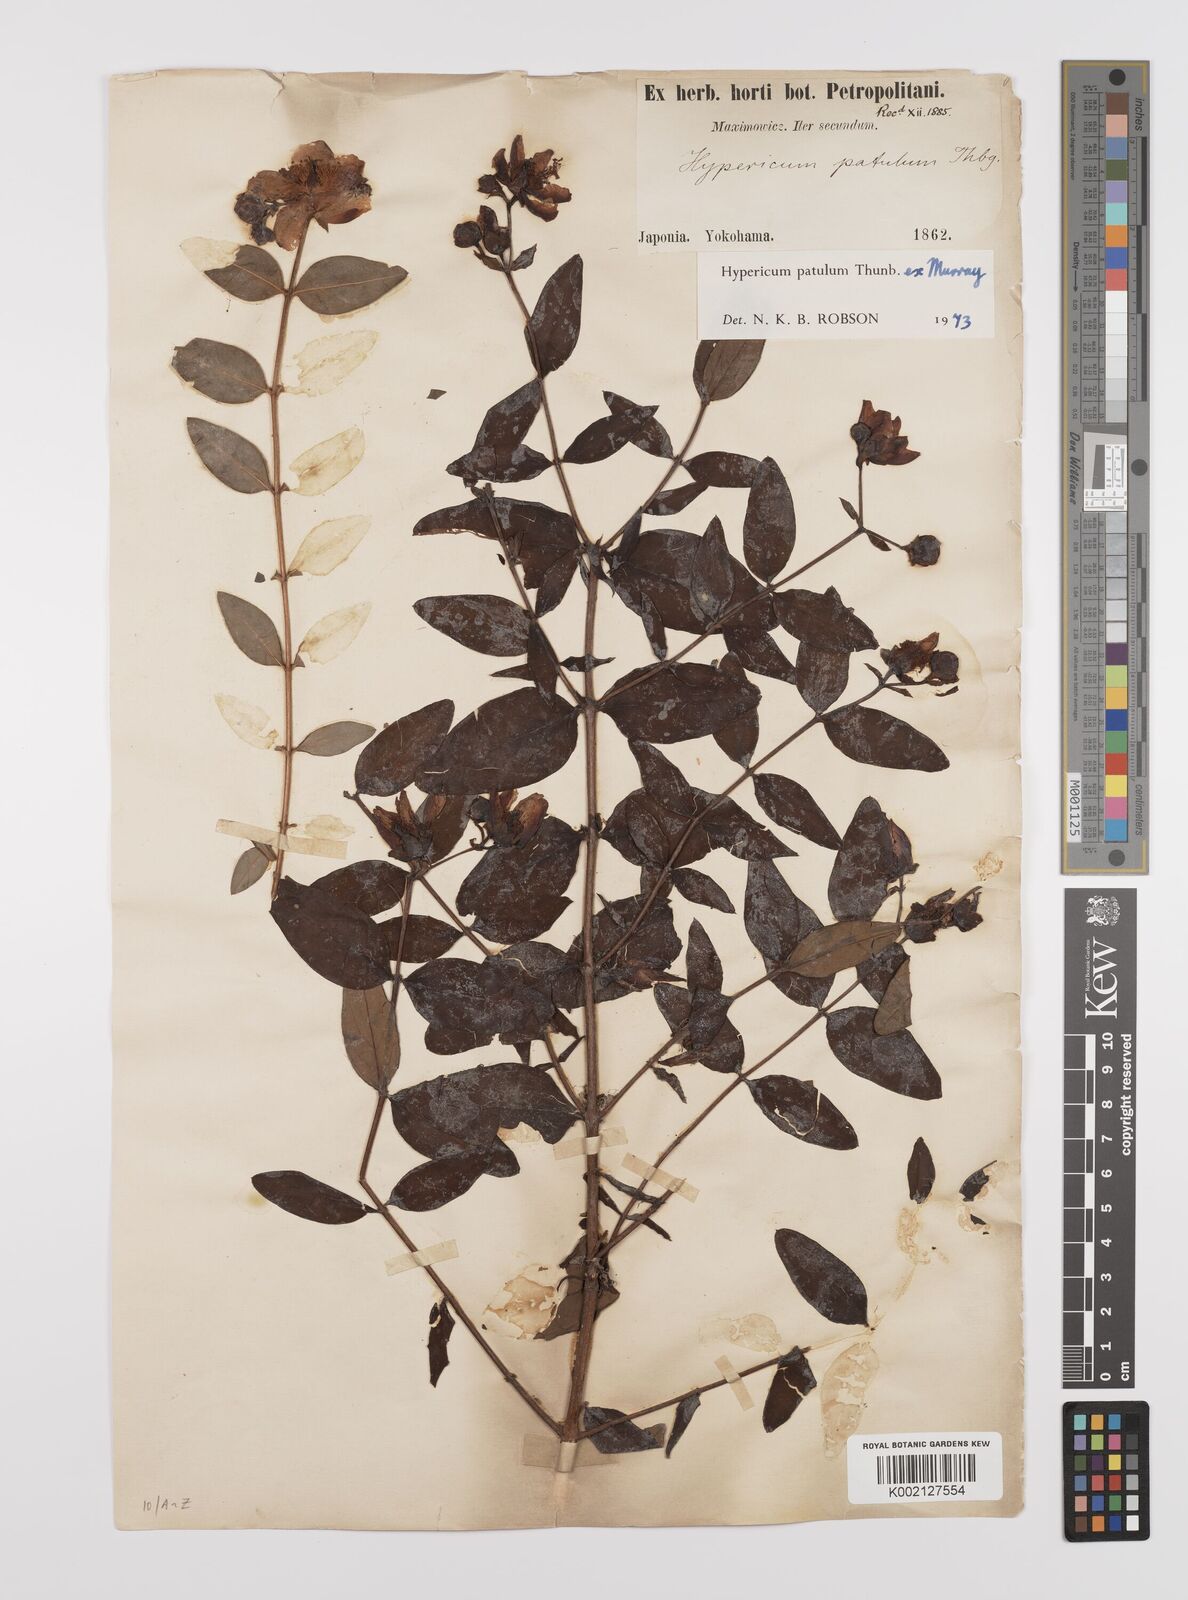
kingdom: Plantae
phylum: Tracheophyta
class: Magnoliopsida
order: Malpighiales
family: Hypericaceae
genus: Hypericum
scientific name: Hypericum patulum
